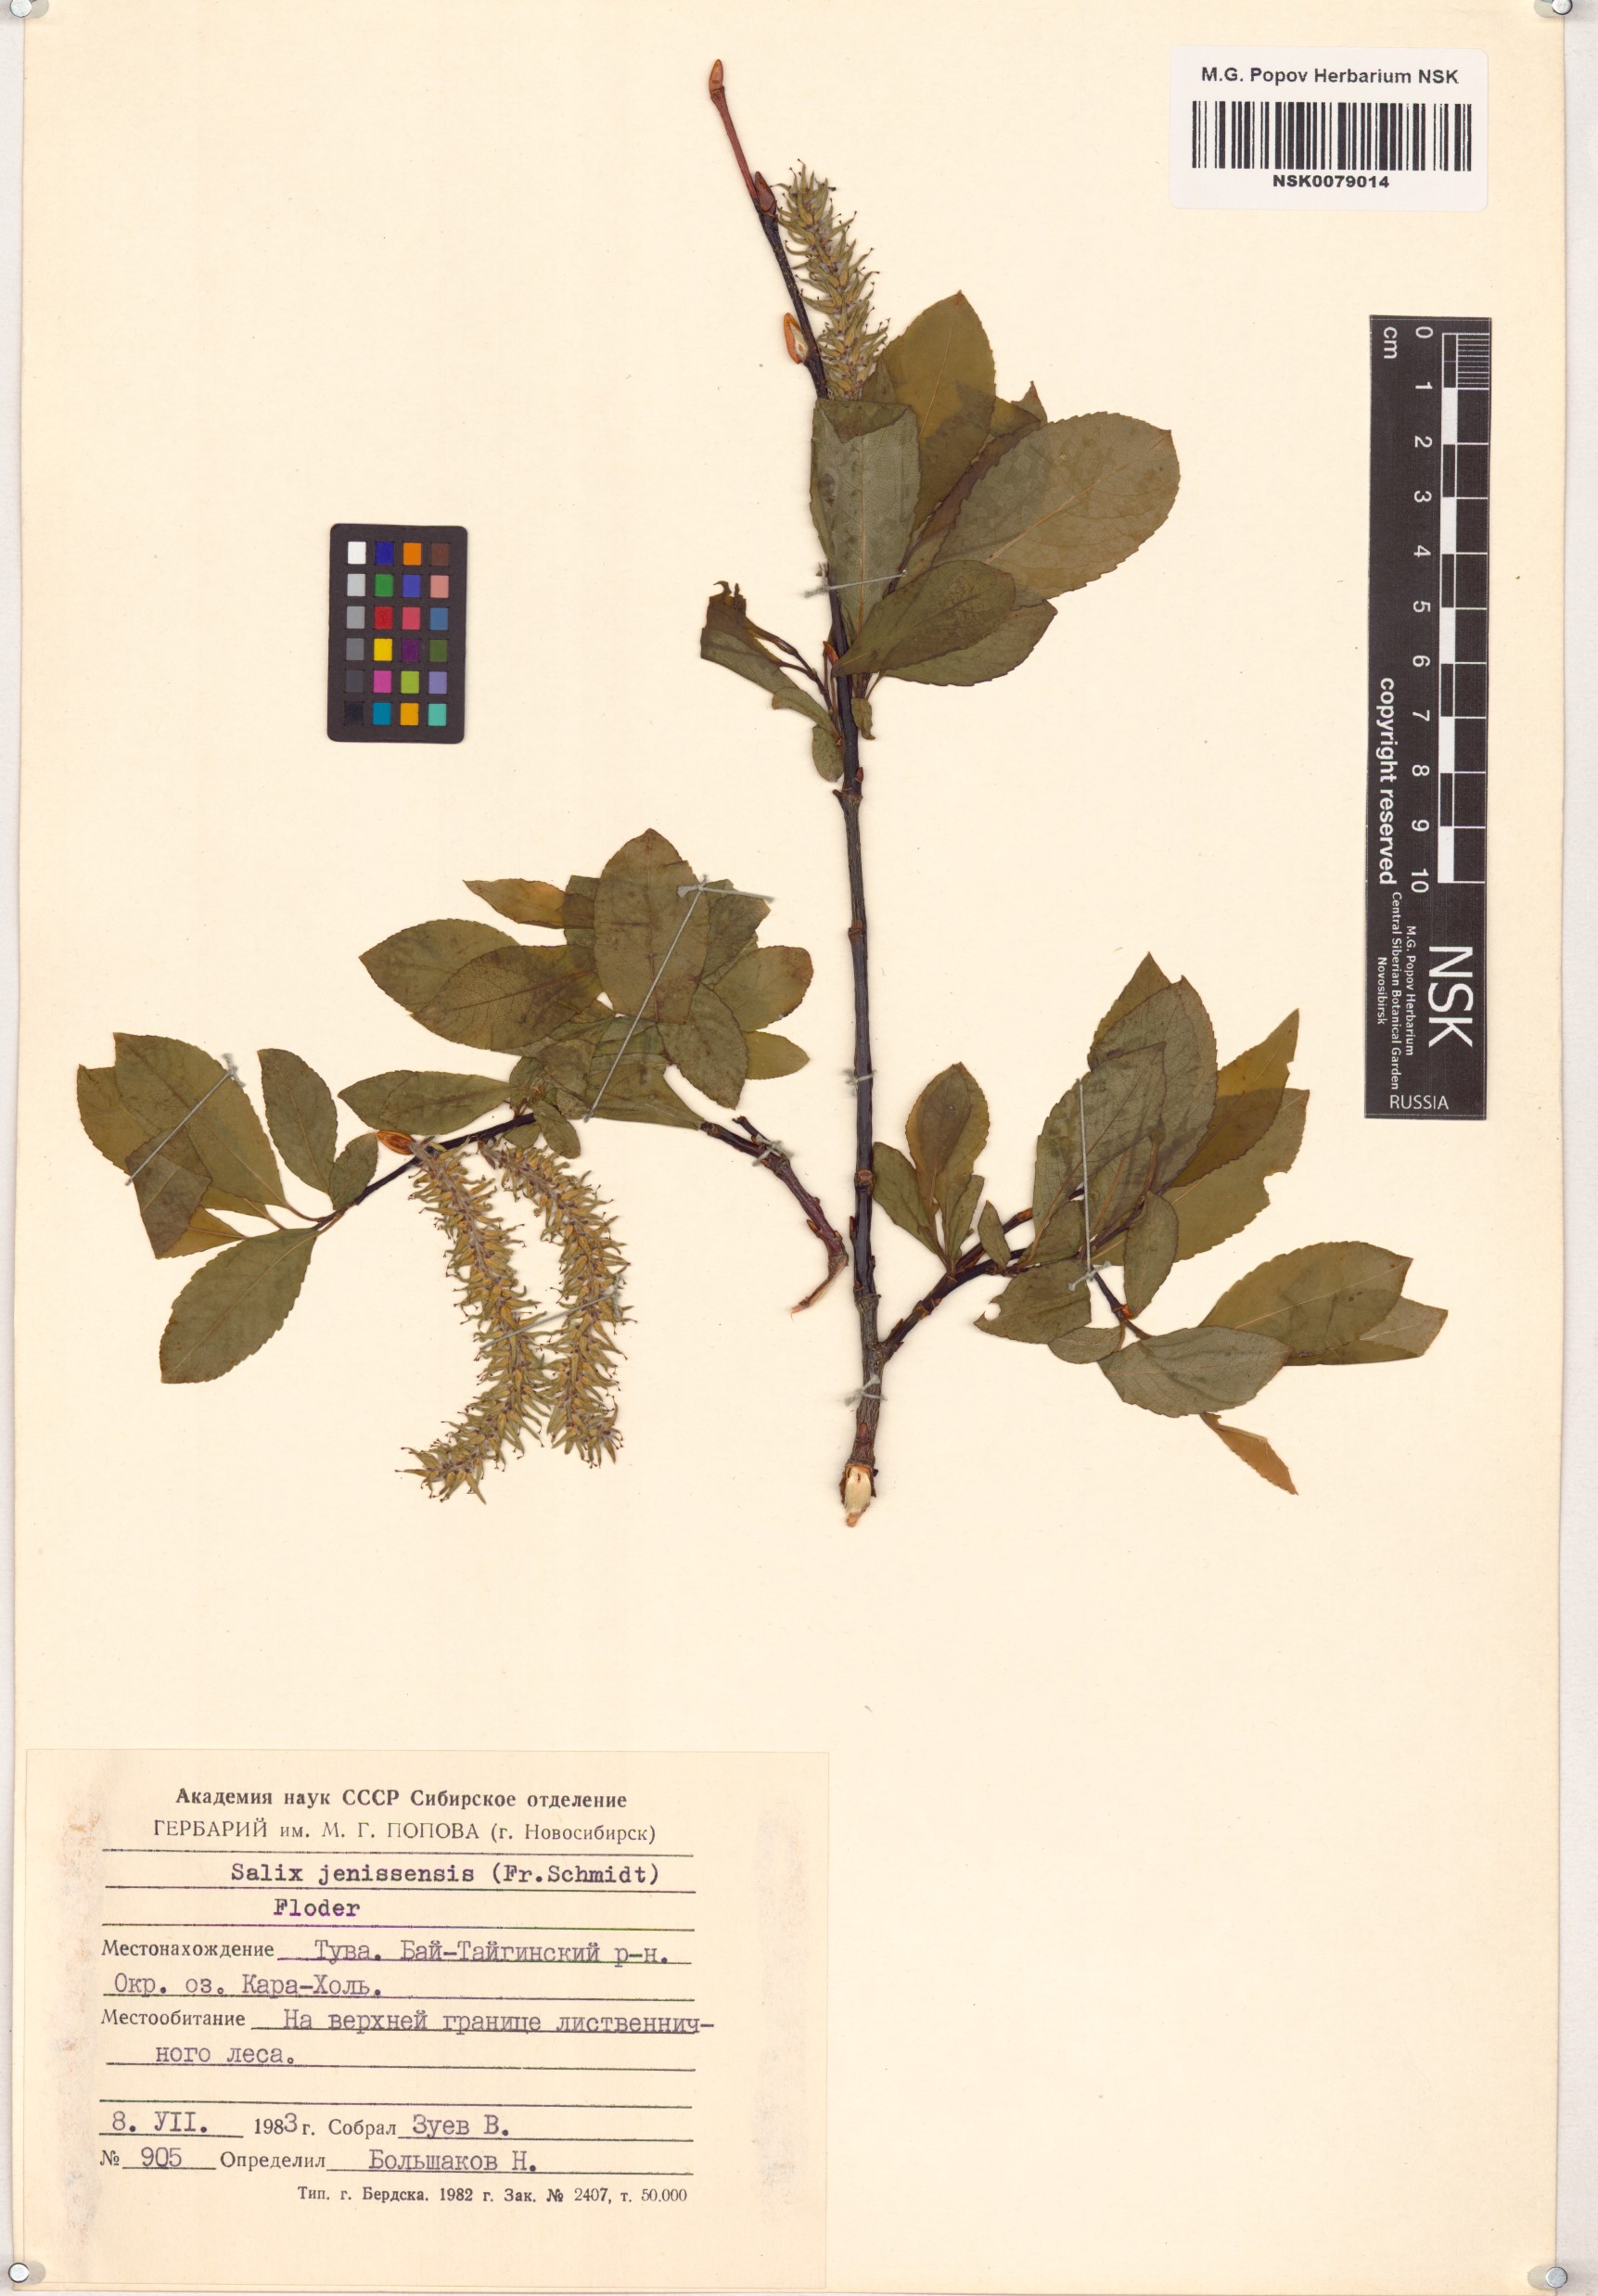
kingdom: Plantae
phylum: Tracheophyta
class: Magnoliopsida
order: Malpighiales
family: Salicaceae
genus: Salix
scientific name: Salix jenisseensis
